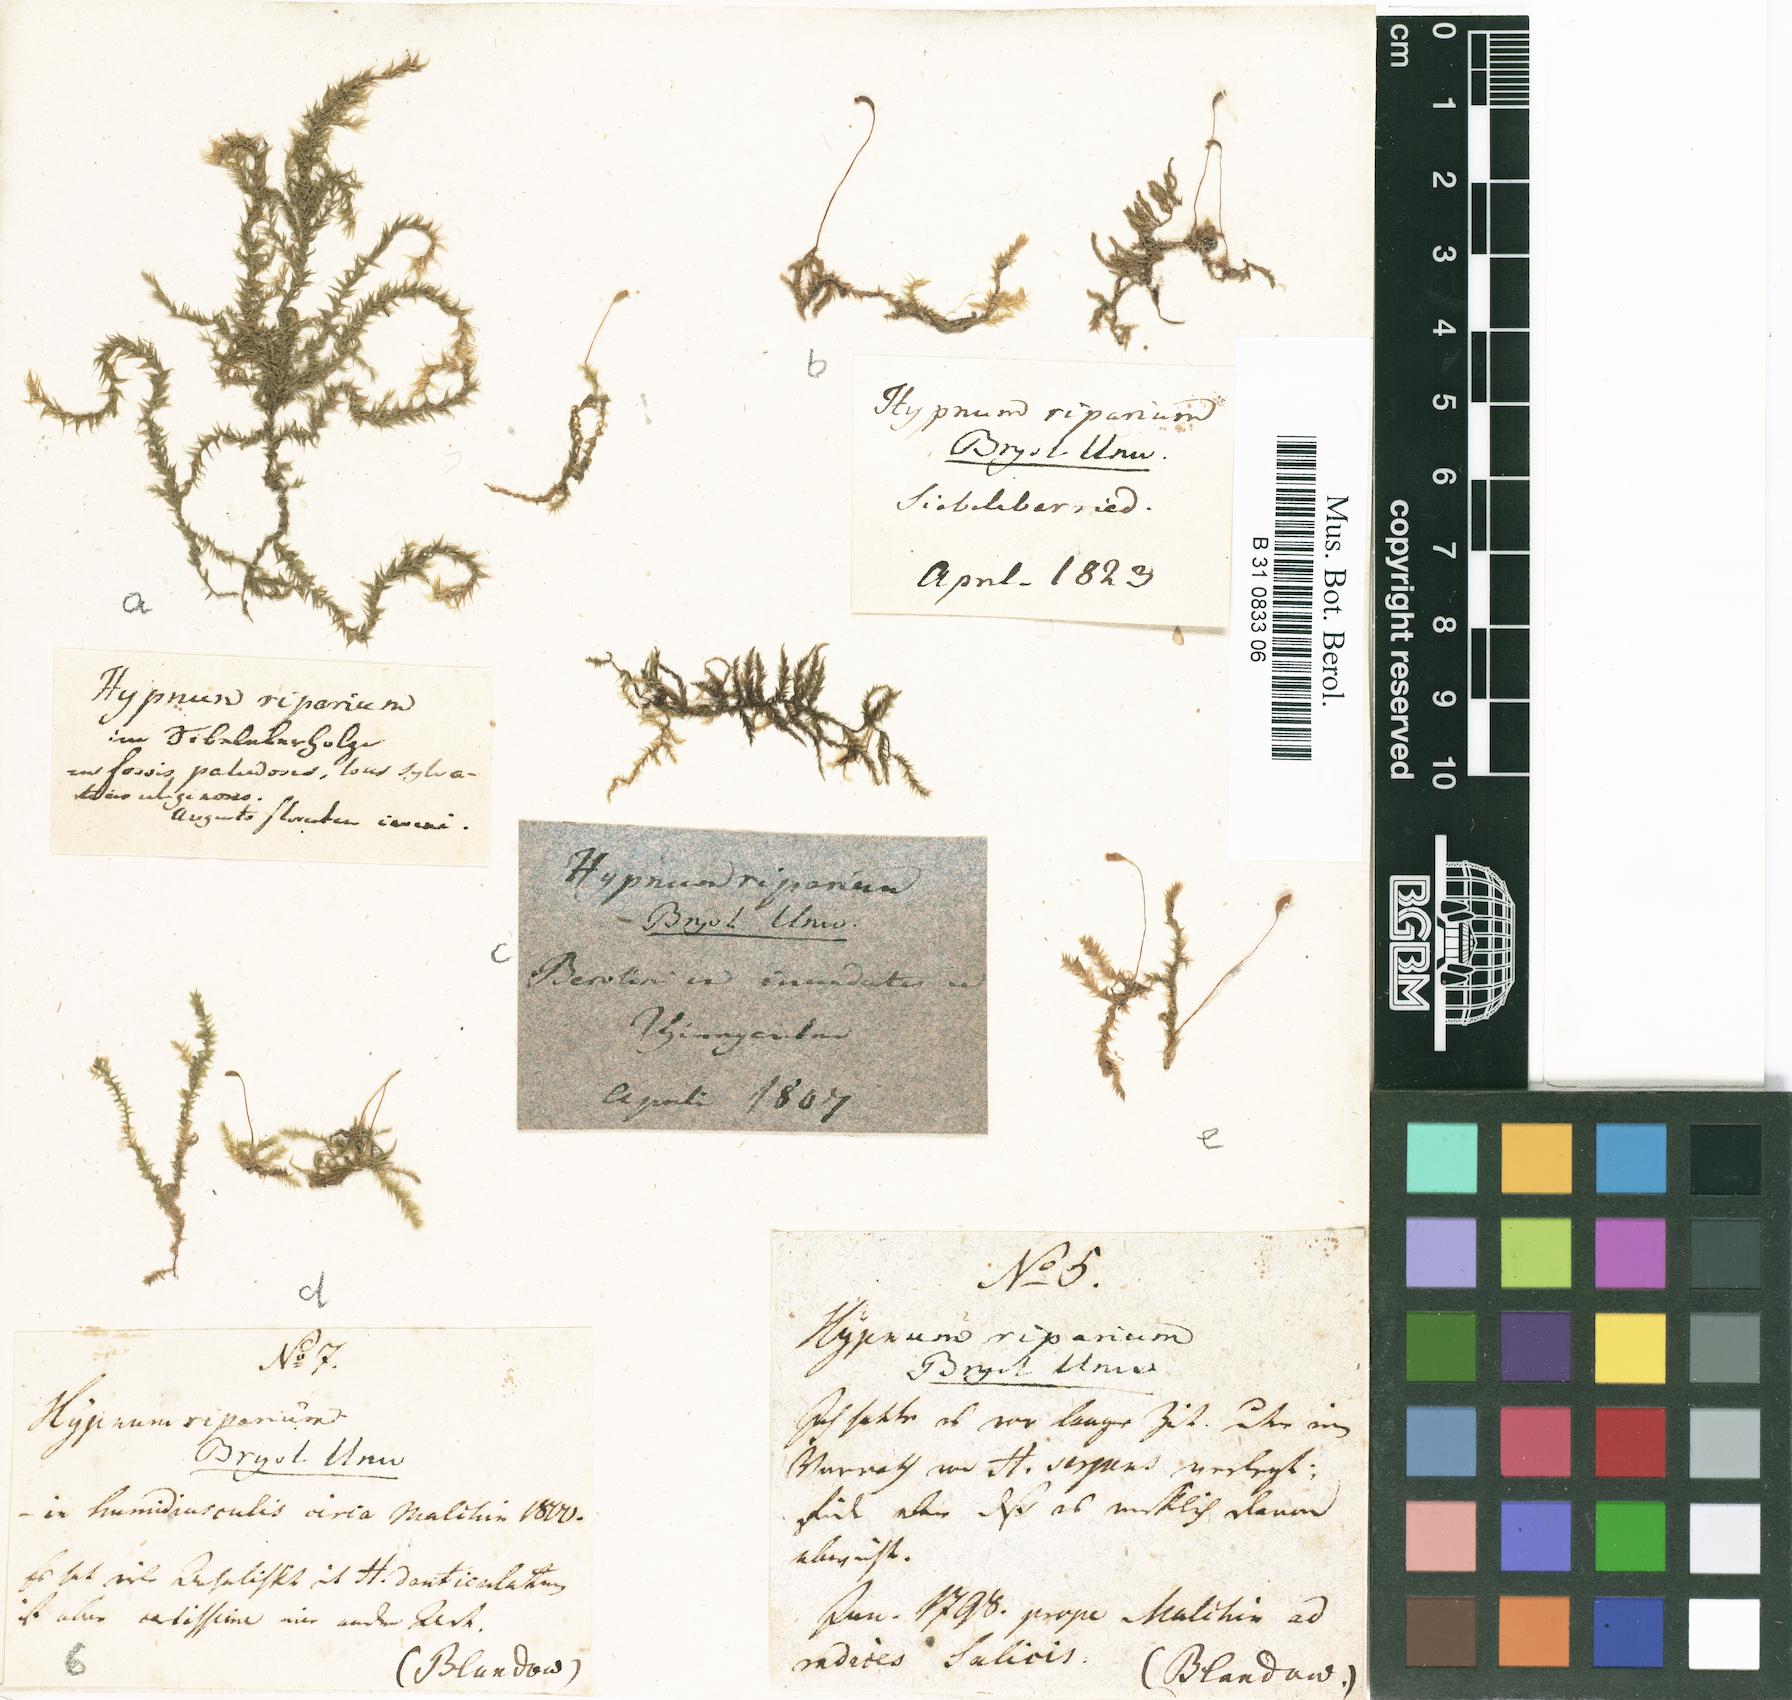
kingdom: Plantae
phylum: Bryophyta
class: Bryopsida
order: Hypnales
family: Amblystegiaceae
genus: Leptodictyum
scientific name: Leptodictyum riparium
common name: Riparian feather moss
